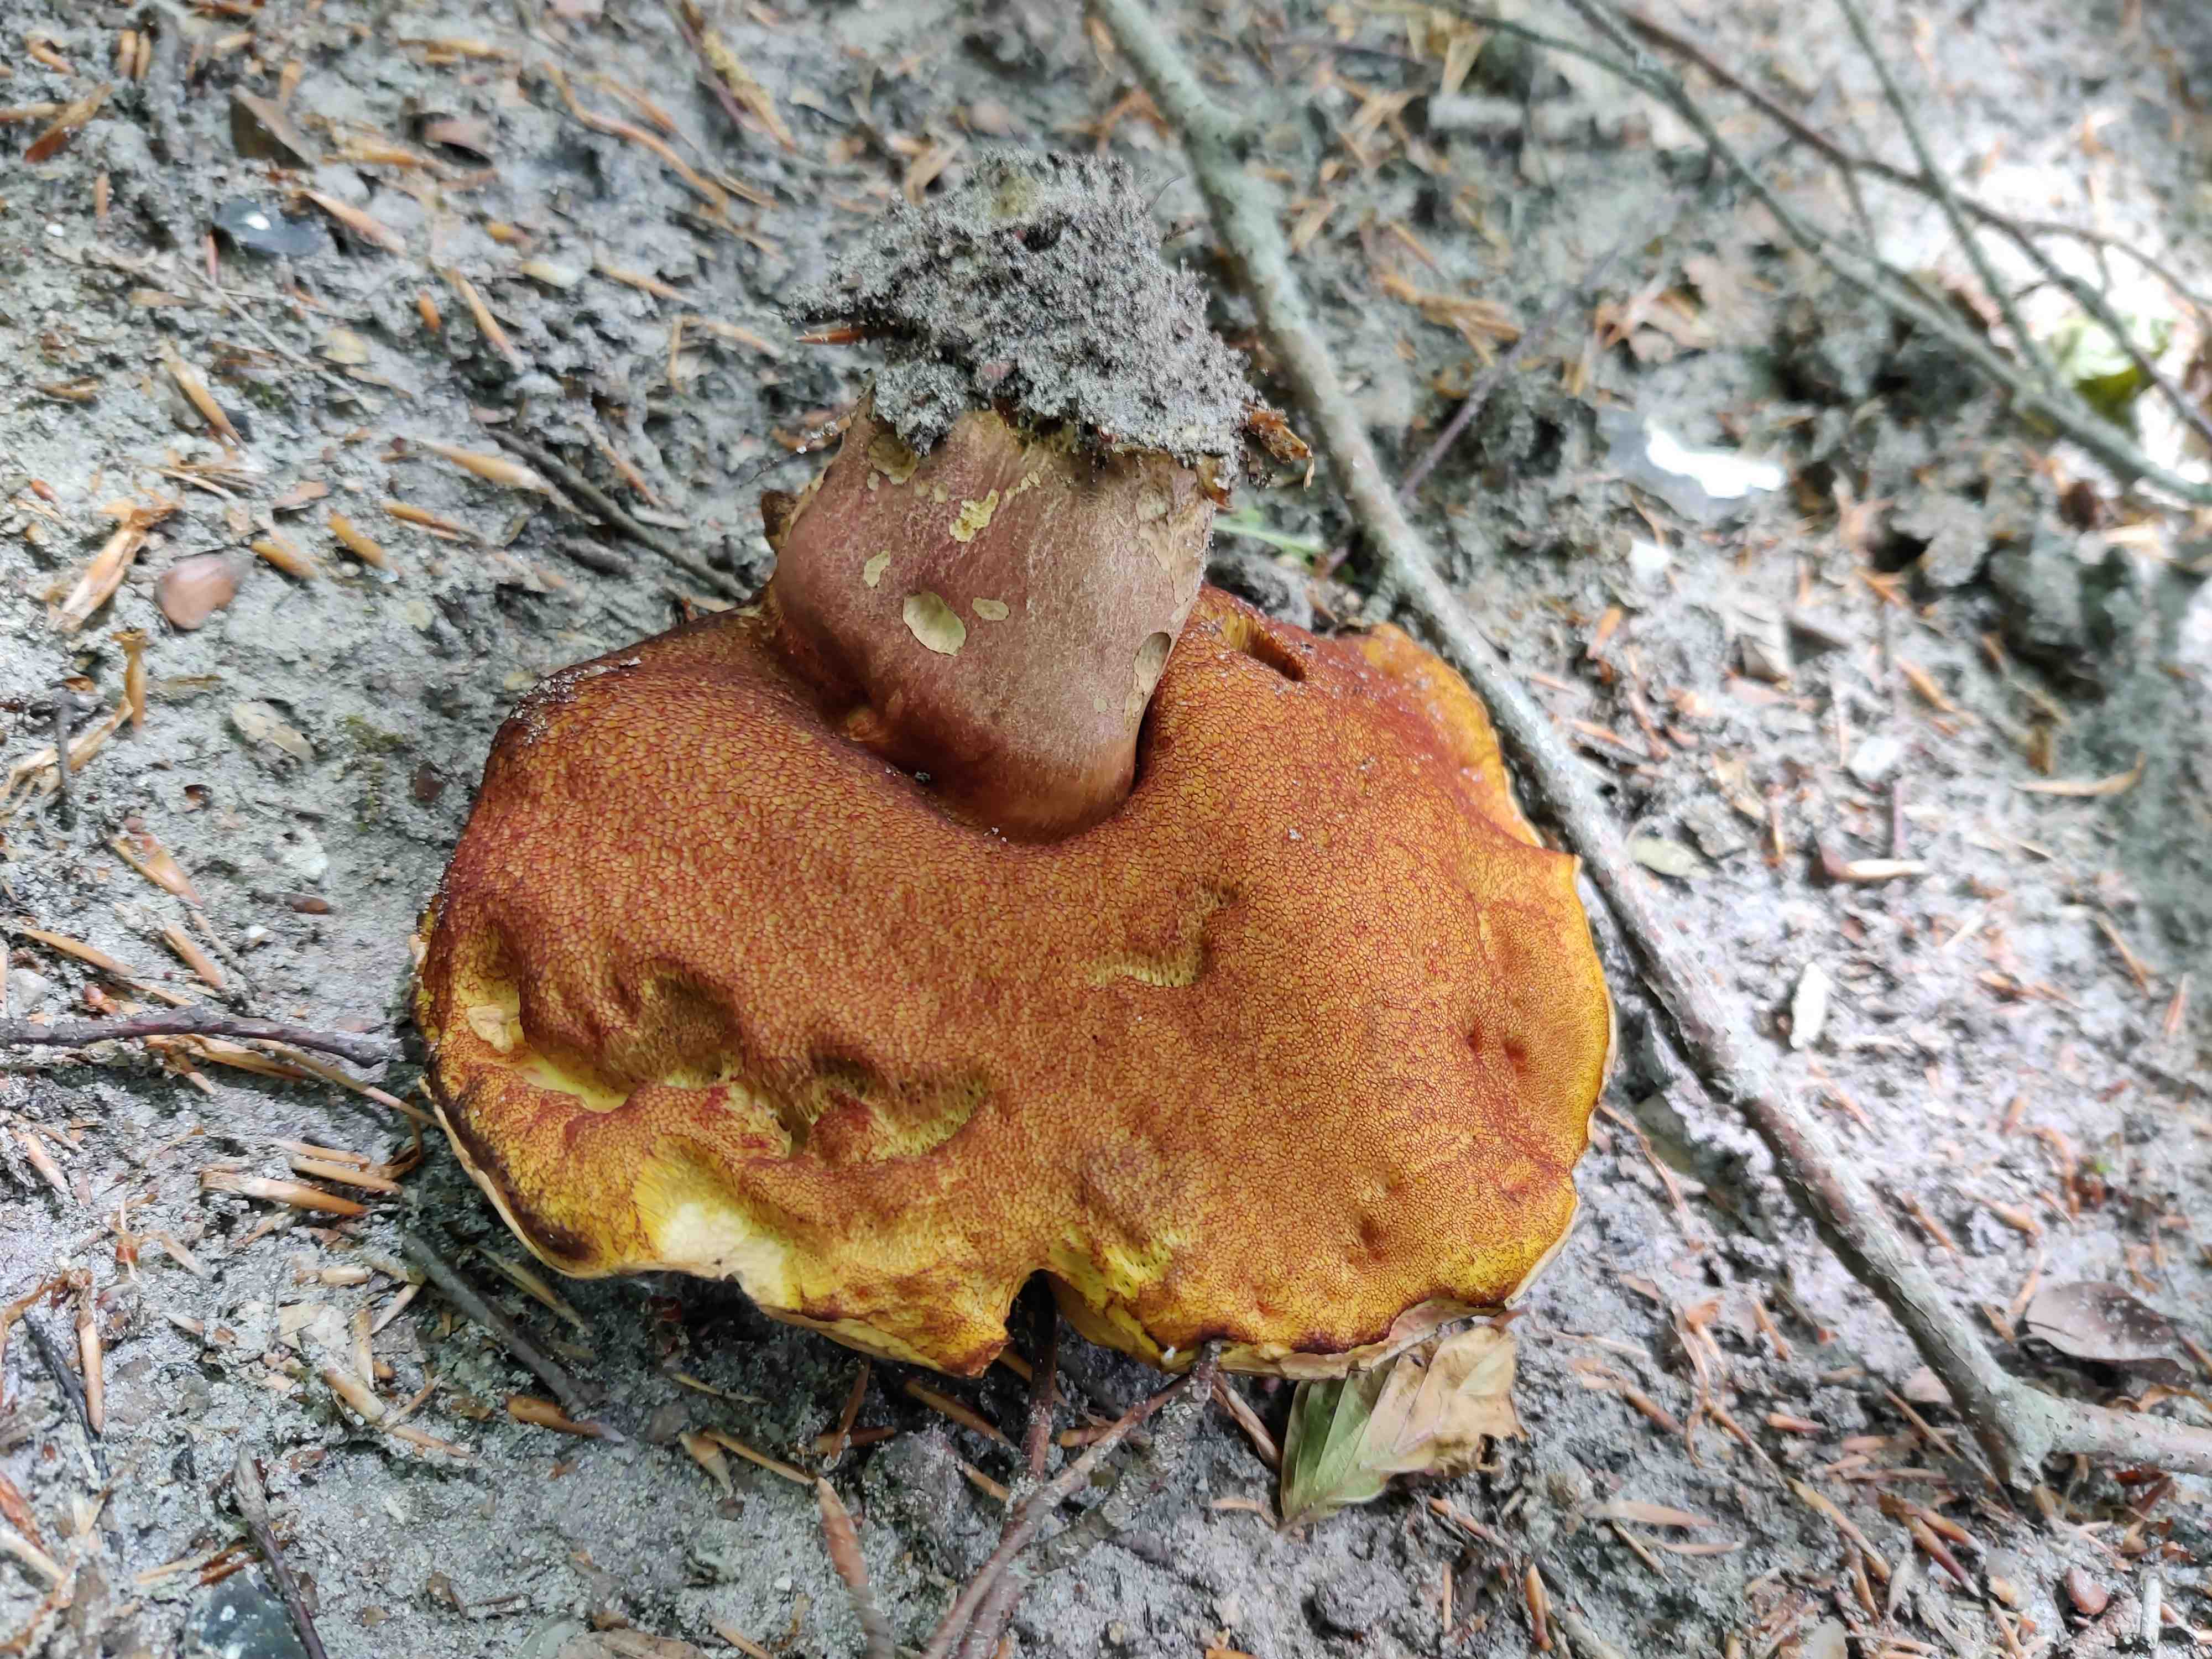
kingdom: Fungi
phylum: Basidiomycota
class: Agaricomycetes
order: Boletales
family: Boletaceae
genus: Neoboletus
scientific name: Neoboletus erythropus
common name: punktstokket indigorørhat
